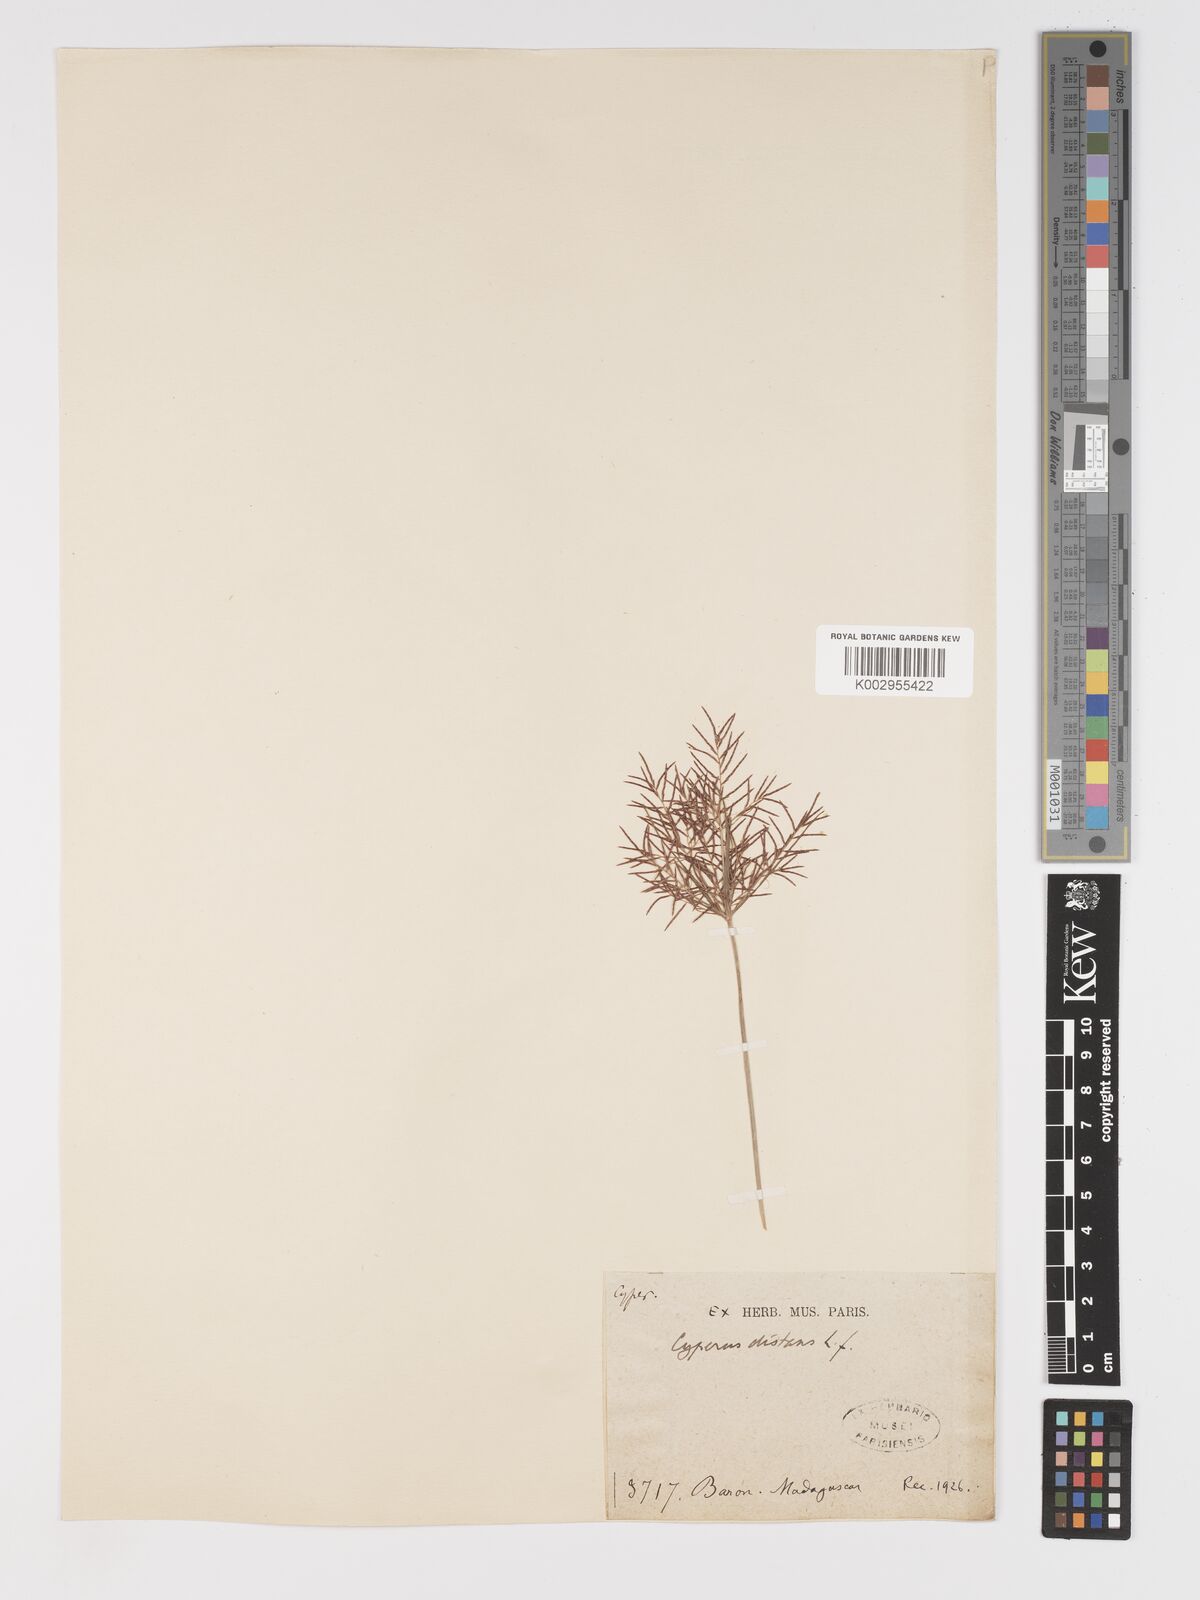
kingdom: Plantae
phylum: Tracheophyta
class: Liliopsida
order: Poales
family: Cyperaceae
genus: Cyperus
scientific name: Cyperus distans
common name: Slender cyperus
